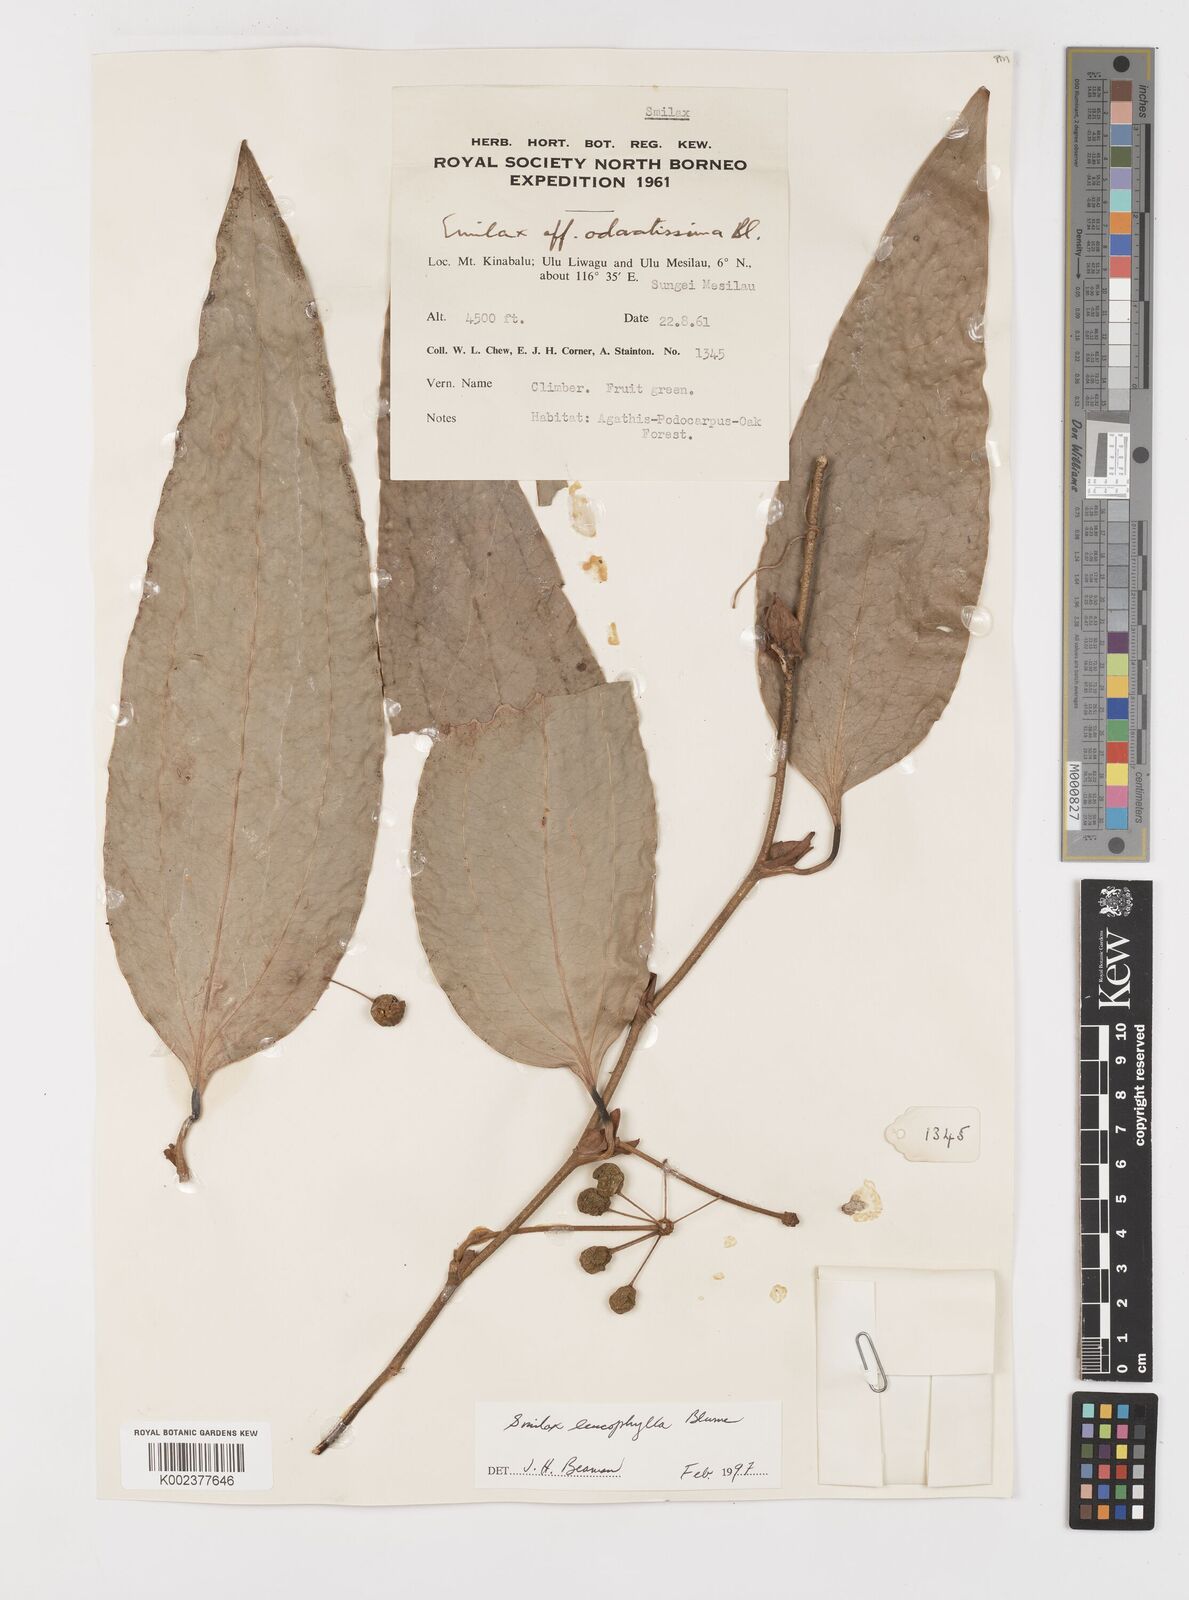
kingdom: Plantae
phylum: Tracheophyta
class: Liliopsida
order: Liliales
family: Smilacaceae
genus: Smilax
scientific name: Smilax
